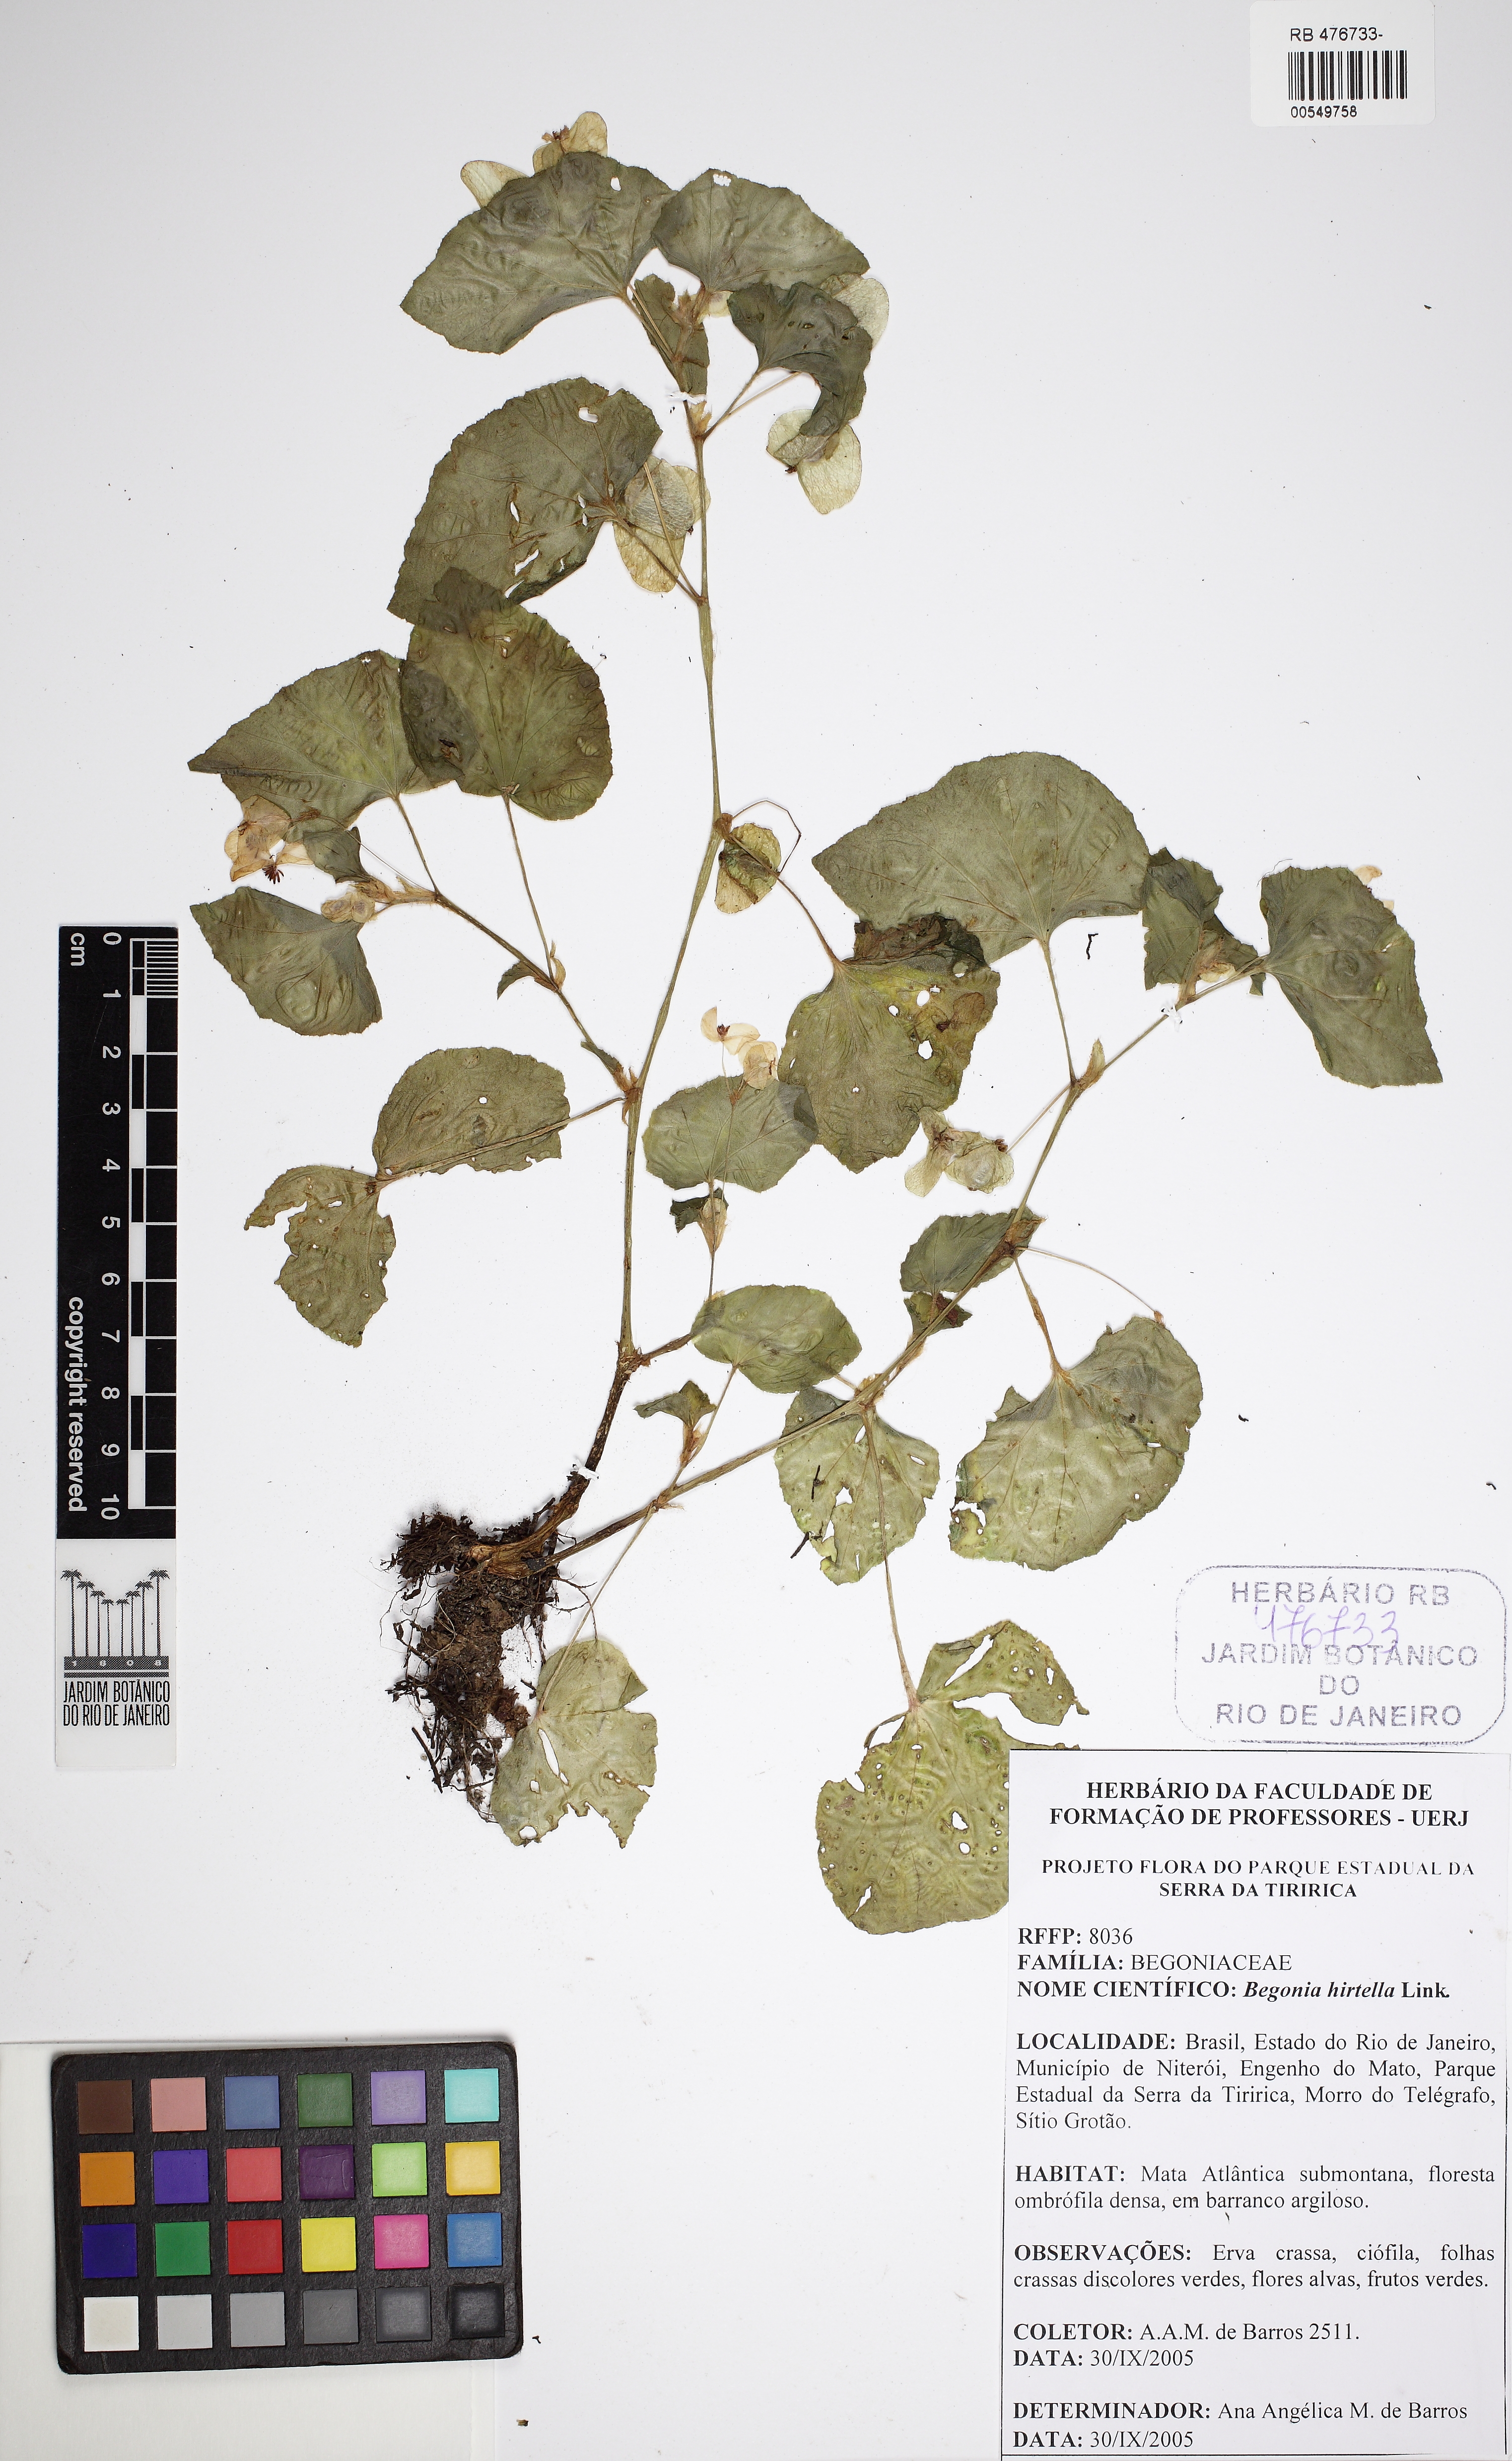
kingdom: Plantae
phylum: Tracheophyta
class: Magnoliopsida
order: Cucurbitales
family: Begoniaceae
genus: Begonia
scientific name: Begonia hirtella
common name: Brazilian begonia
